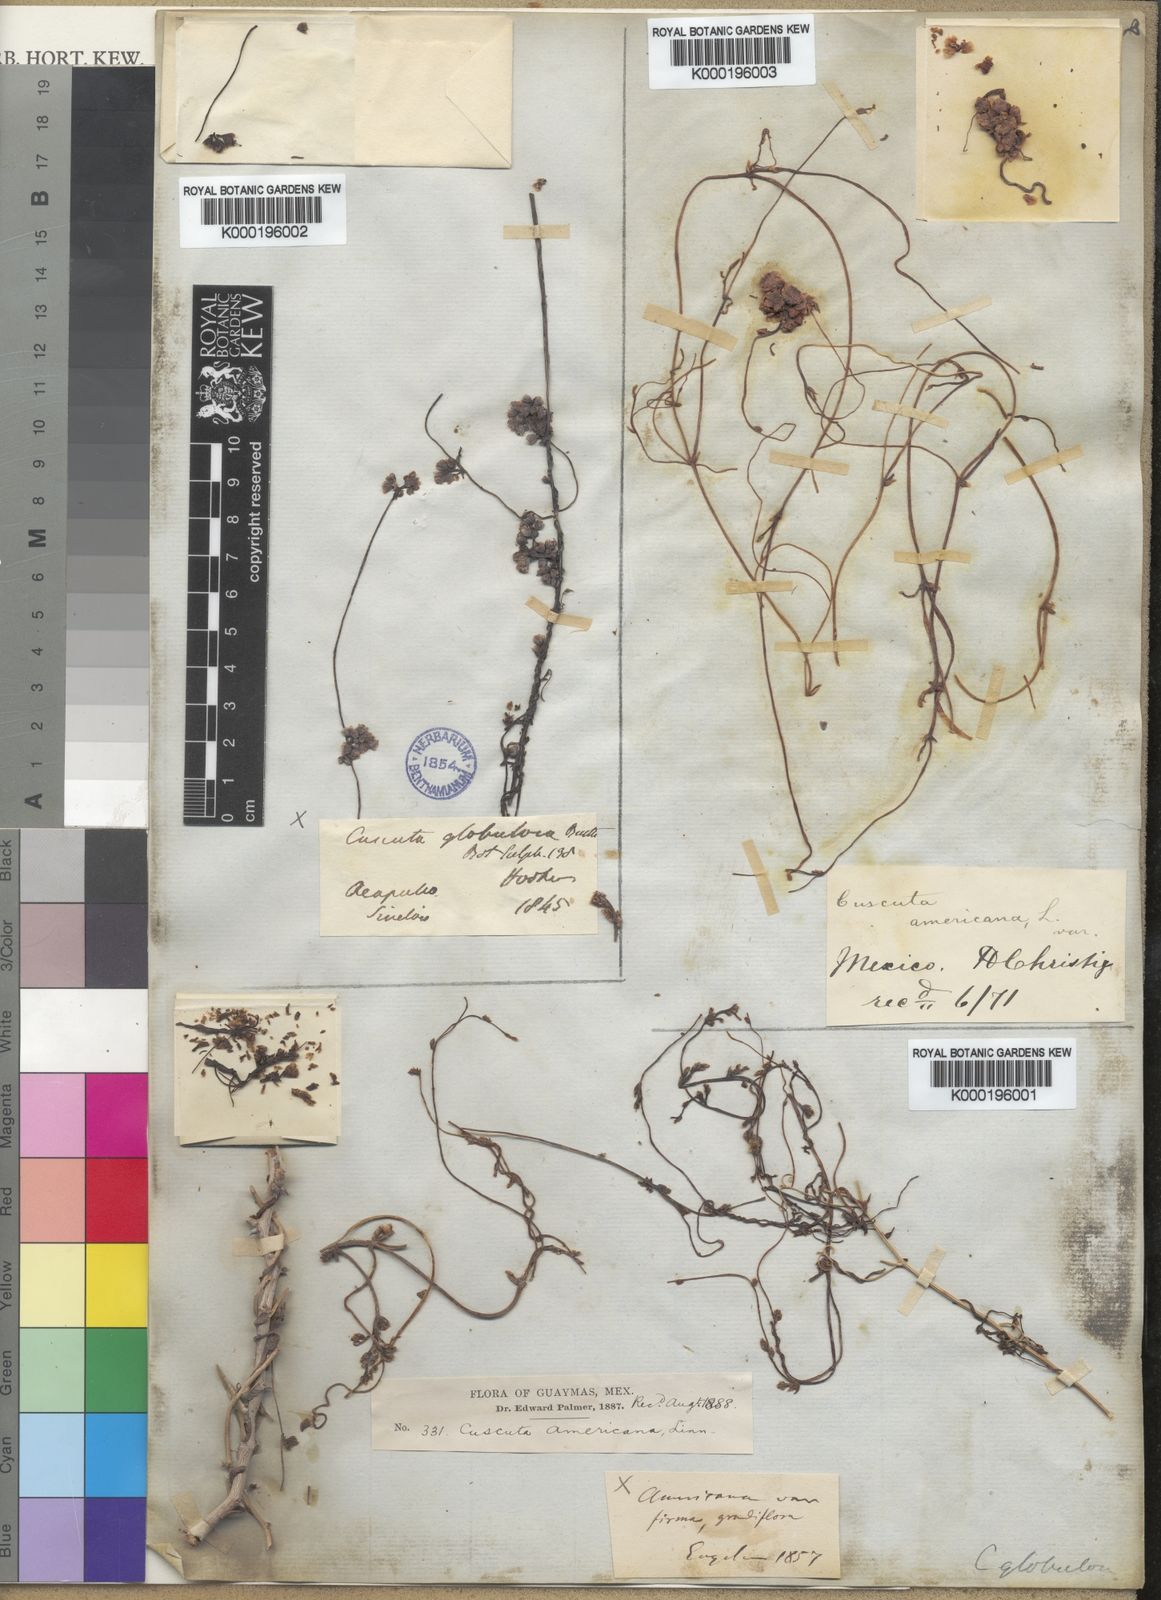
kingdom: Plantae
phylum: Tracheophyta
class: Magnoliopsida
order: Solanales
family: Convolvulaceae
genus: Cuscuta
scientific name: Cuscuta americana
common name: American dodder
